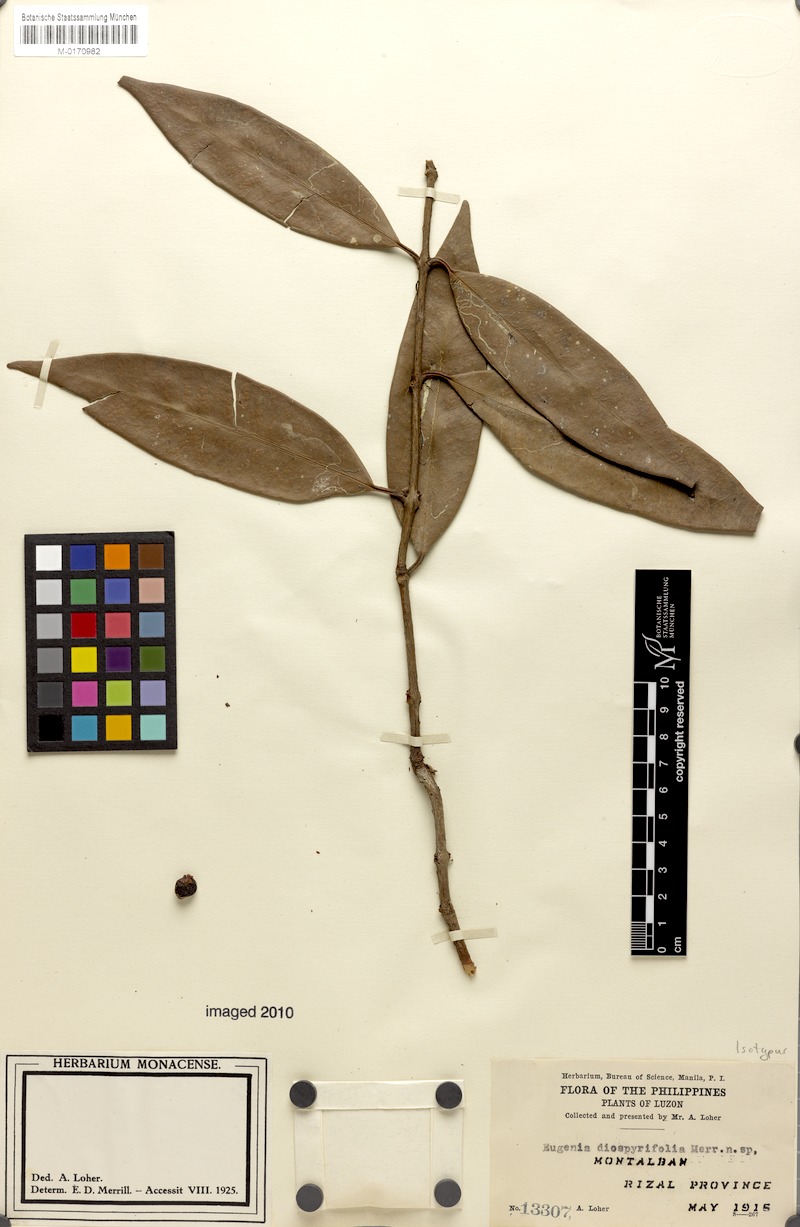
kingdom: Plantae
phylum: Tracheophyta
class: Magnoliopsida
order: Myrtales
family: Myrtaceae
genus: Eugenia
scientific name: Eugenia montalbanica
